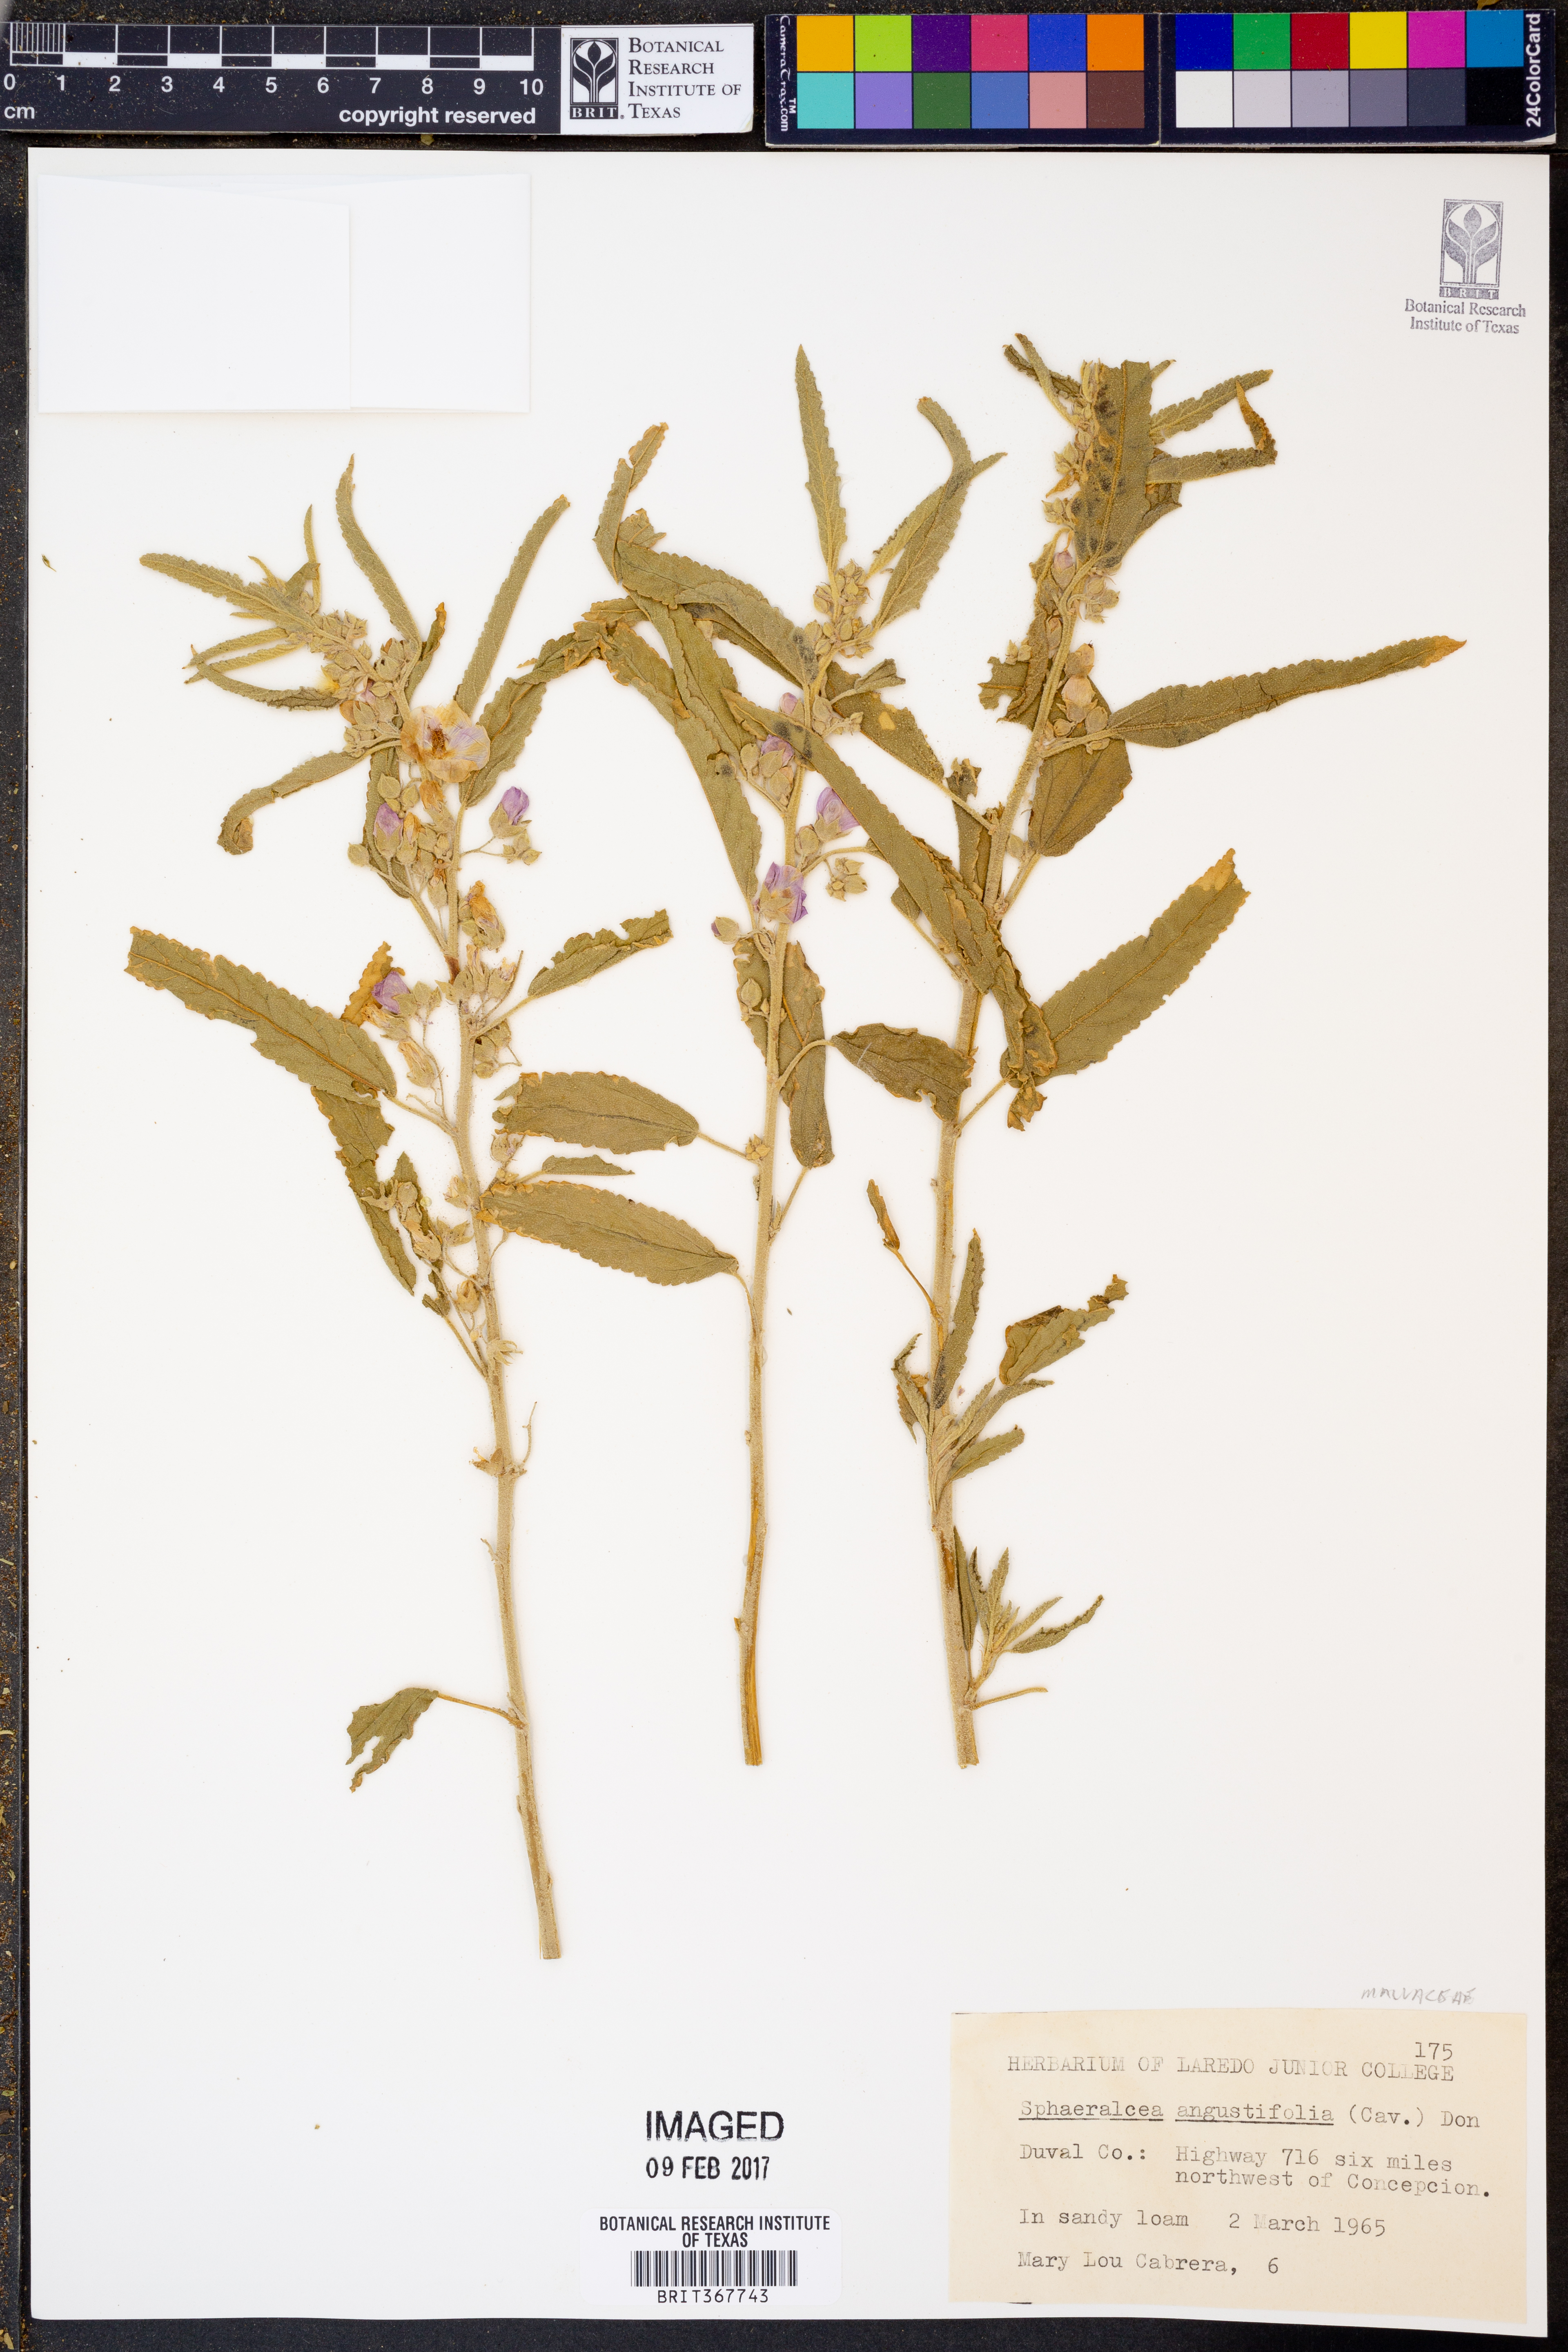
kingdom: Plantae
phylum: Tracheophyta
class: Magnoliopsida
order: Malvales
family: Malvaceae
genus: Sphaeralcea
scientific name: Sphaeralcea angustifolia
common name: Copper globe-mallow
